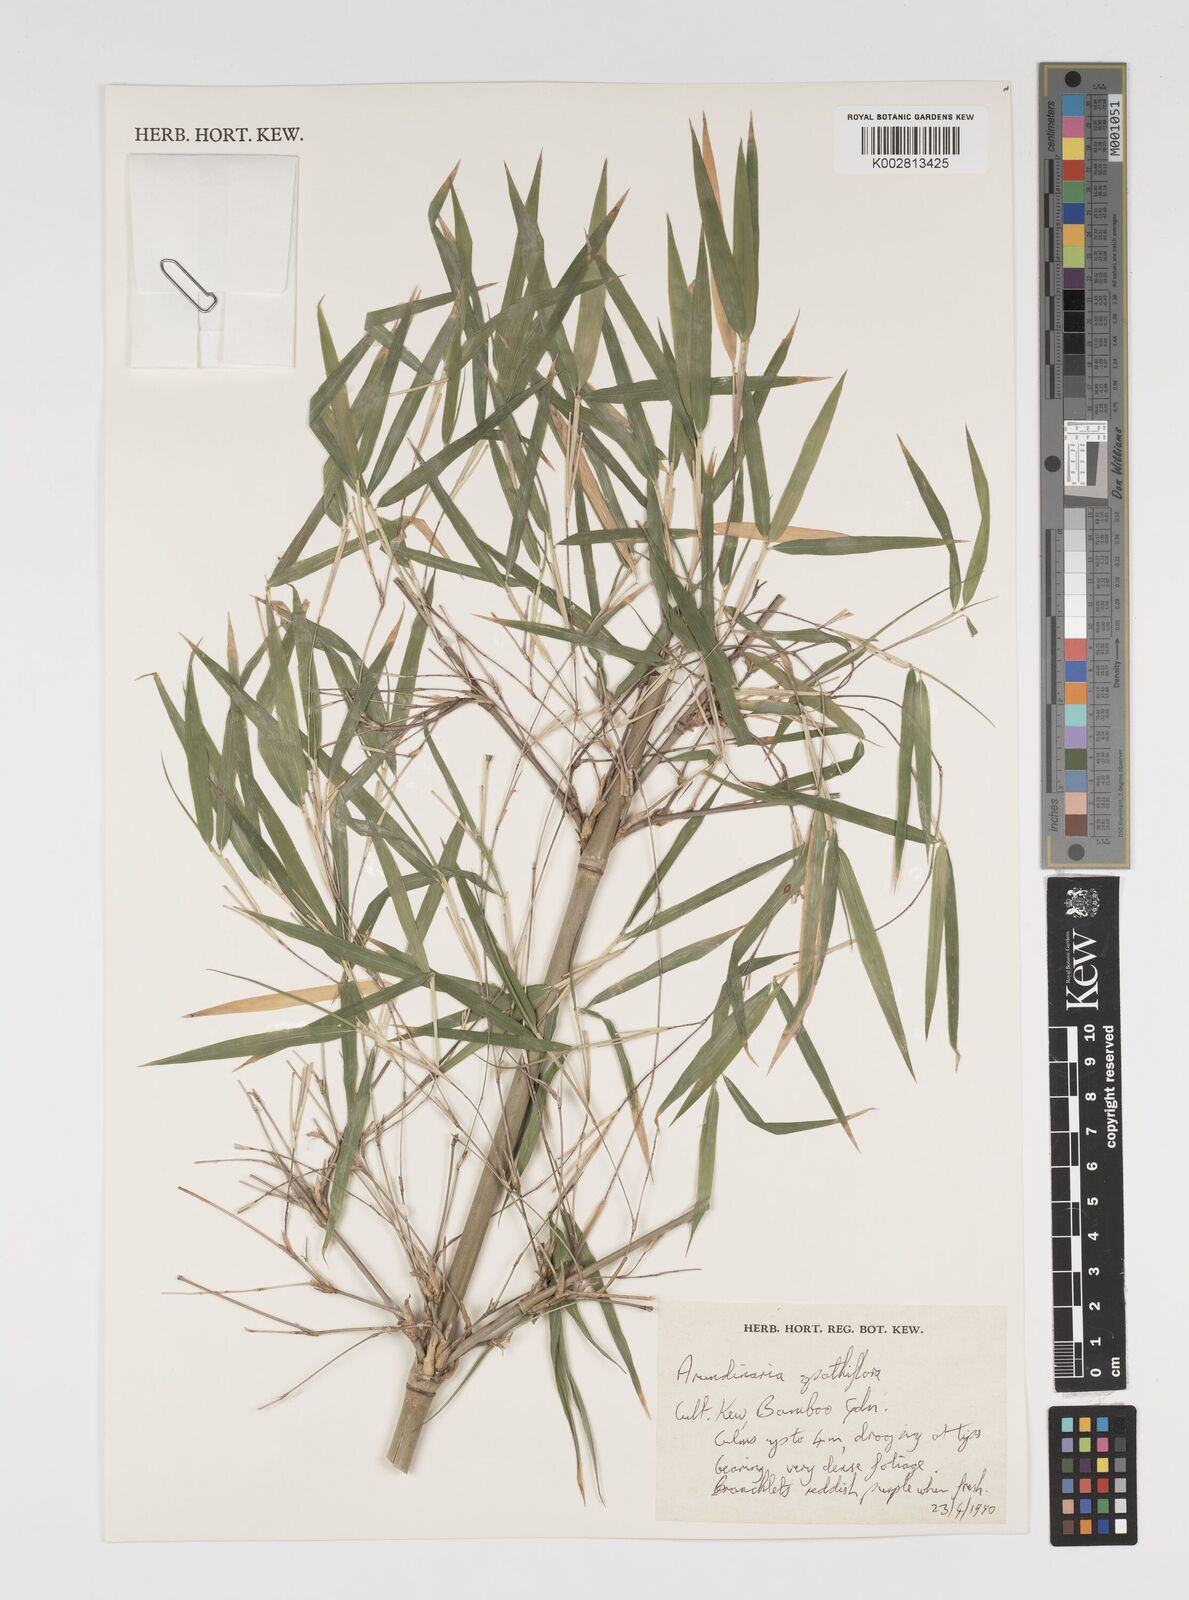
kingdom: Plantae
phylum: Tracheophyta
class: Liliopsida
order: Poales
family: Poaceae
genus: Thamnocalamus
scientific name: Thamnocalamus spathiflorus
